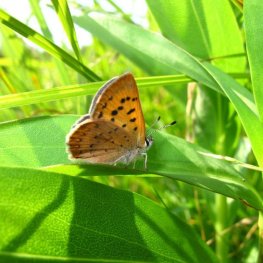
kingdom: Animalia
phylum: Arthropoda
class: Insecta
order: Lepidoptera
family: Lycaenidae
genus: Epidemia
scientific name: Epidemia dorcas
